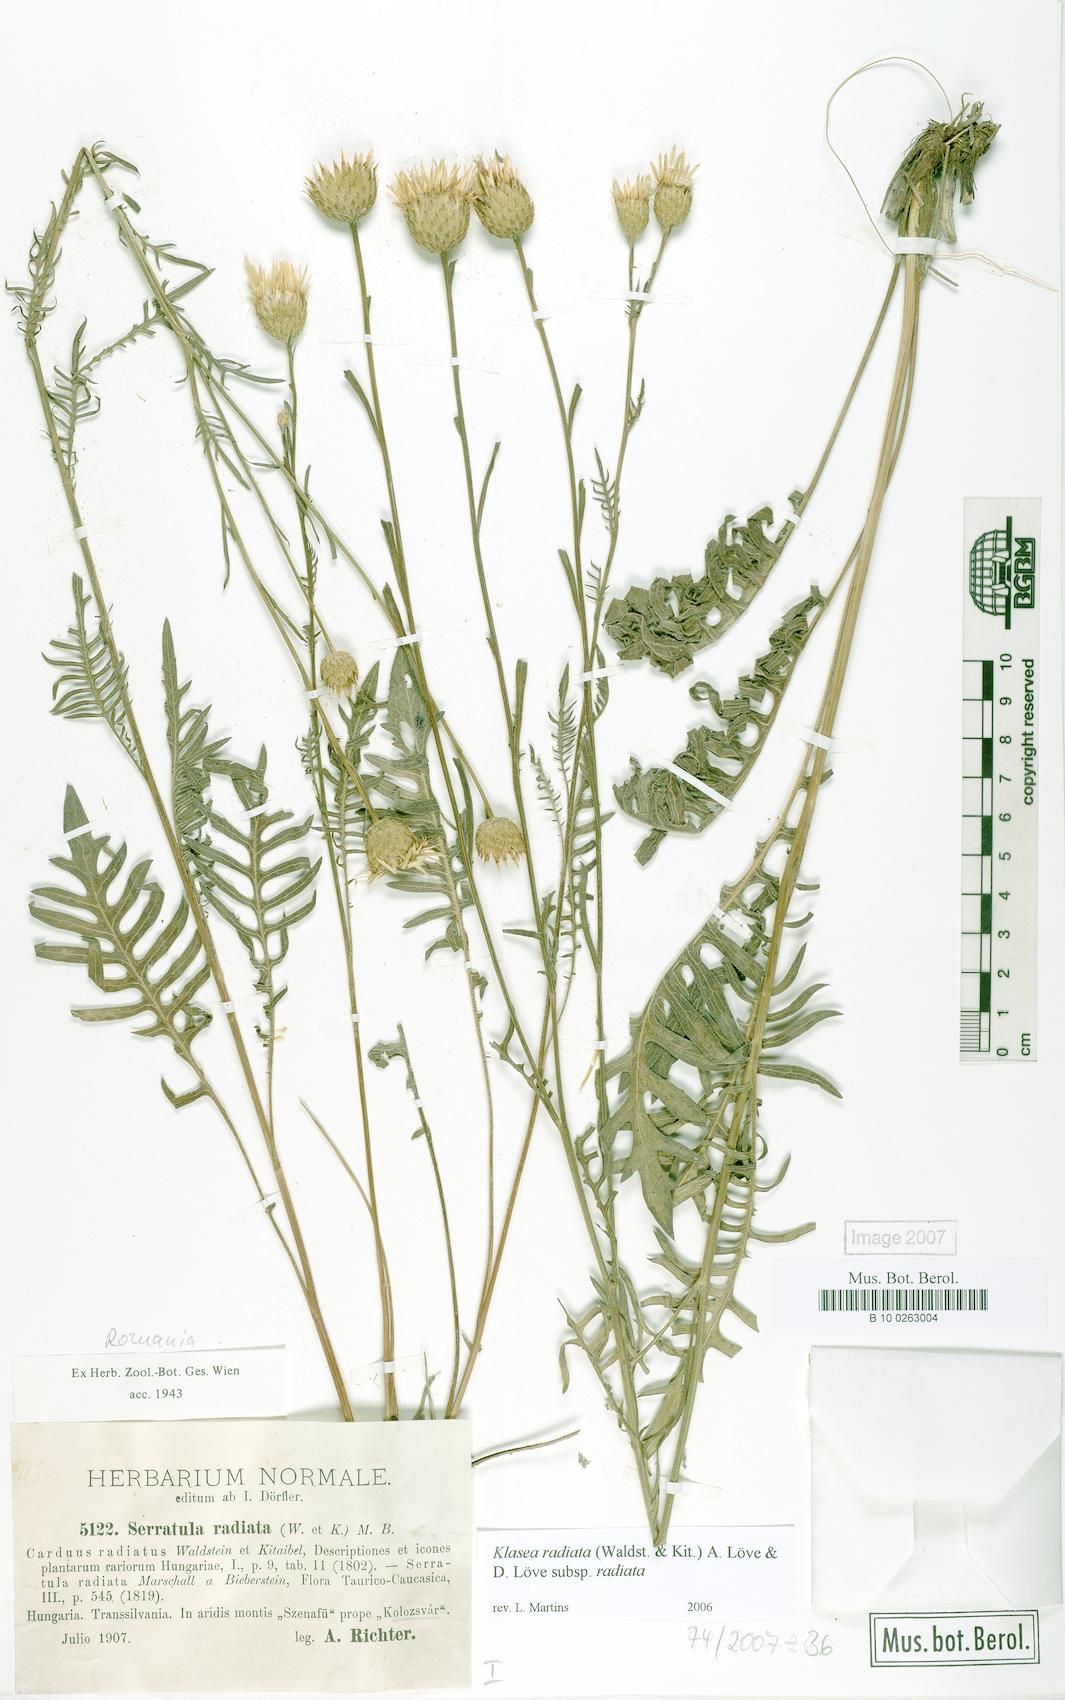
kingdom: Plantae
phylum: Tracheophyta
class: Magnoliopsida
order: Asterales
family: Asteraceae
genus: Klasea
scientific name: Klasea radiata
